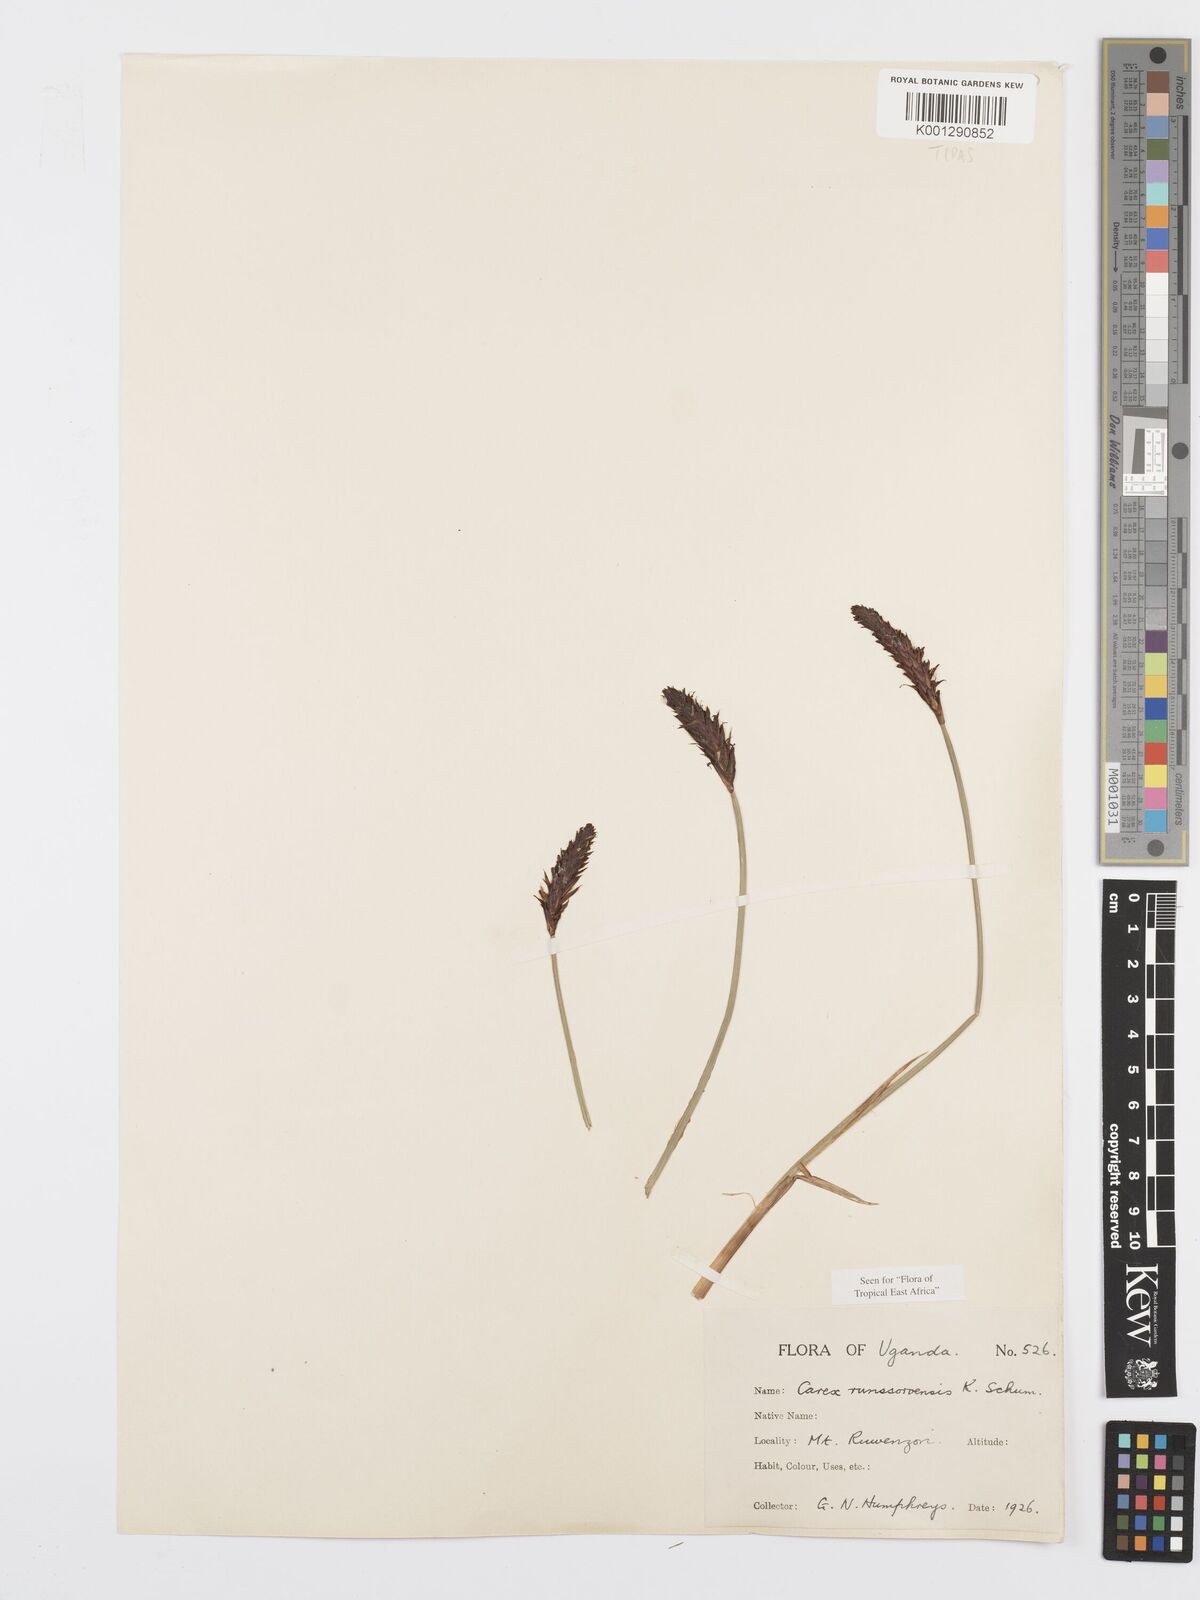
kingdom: Plantae
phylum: Tracheophyta
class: Liliopsida
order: Poales
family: Cyperaceae
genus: Carex
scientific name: Carex runssoroensis
